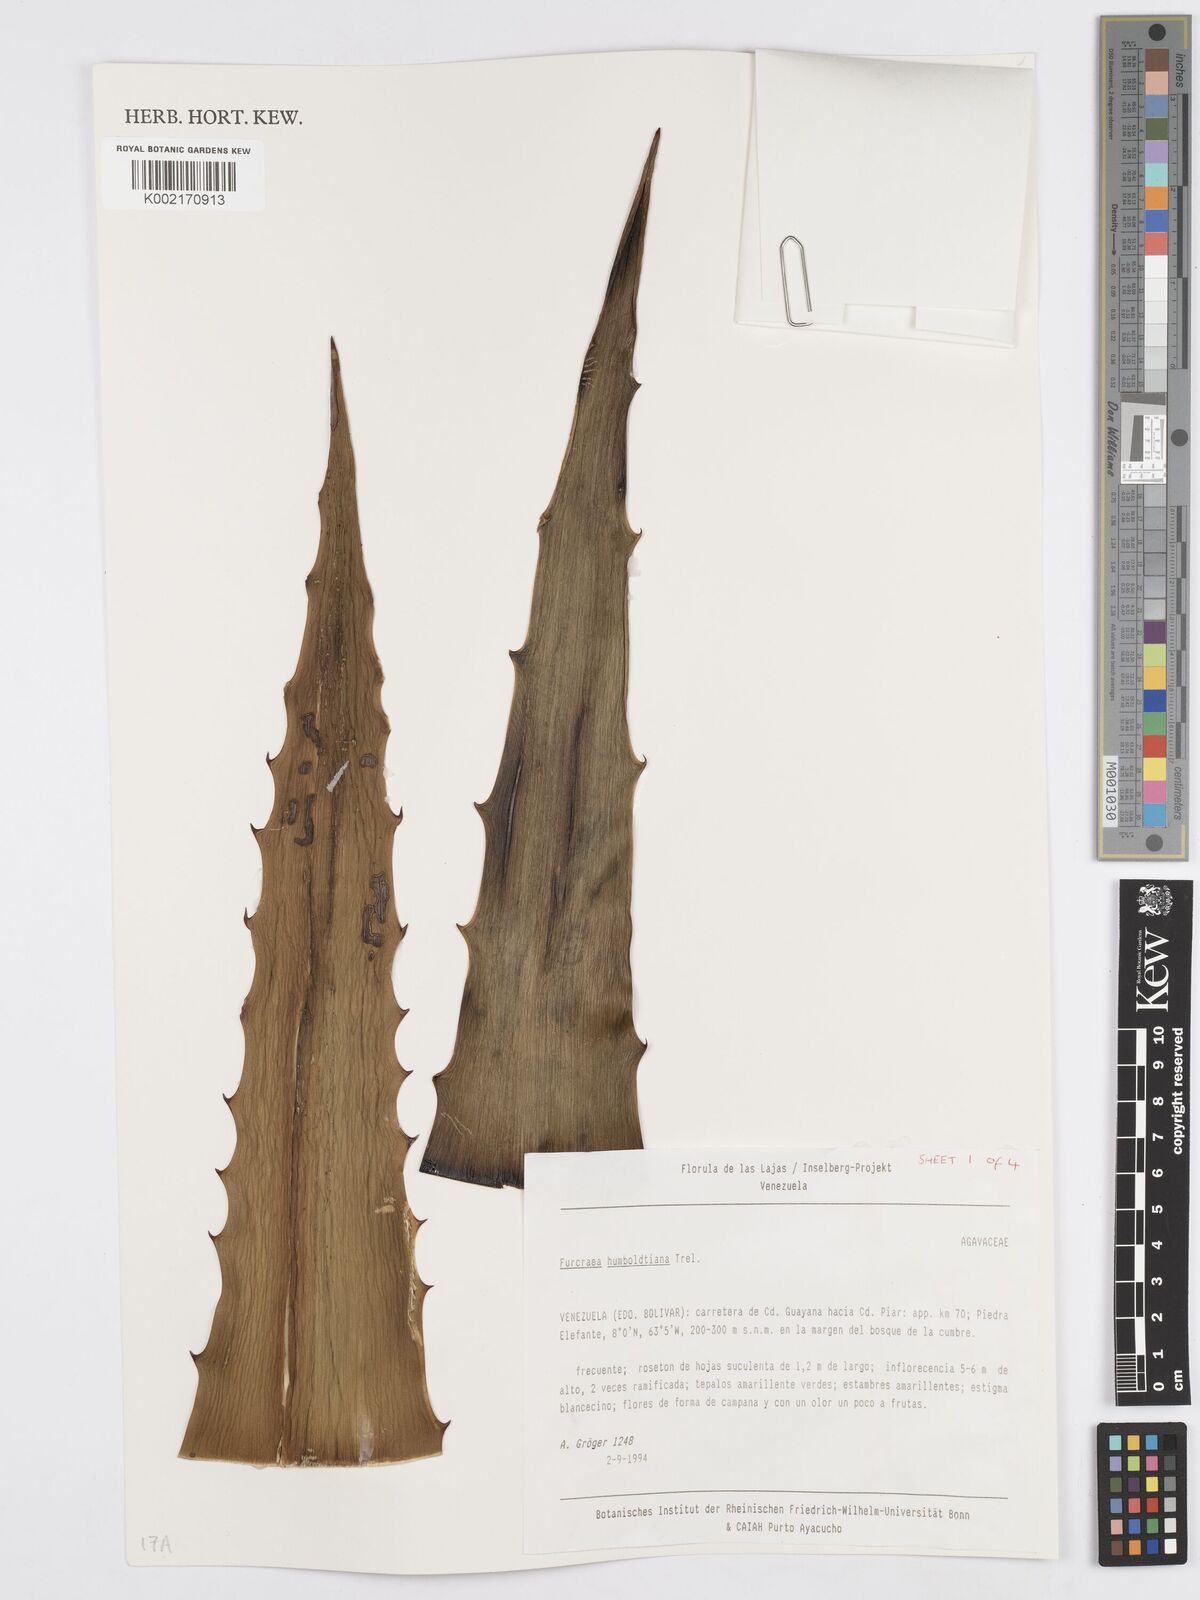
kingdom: Plantae
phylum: Tracheophyta
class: Liliopsida
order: Asparagales
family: Asparagaceae
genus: Furcraea
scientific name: Furcraea acaulis
